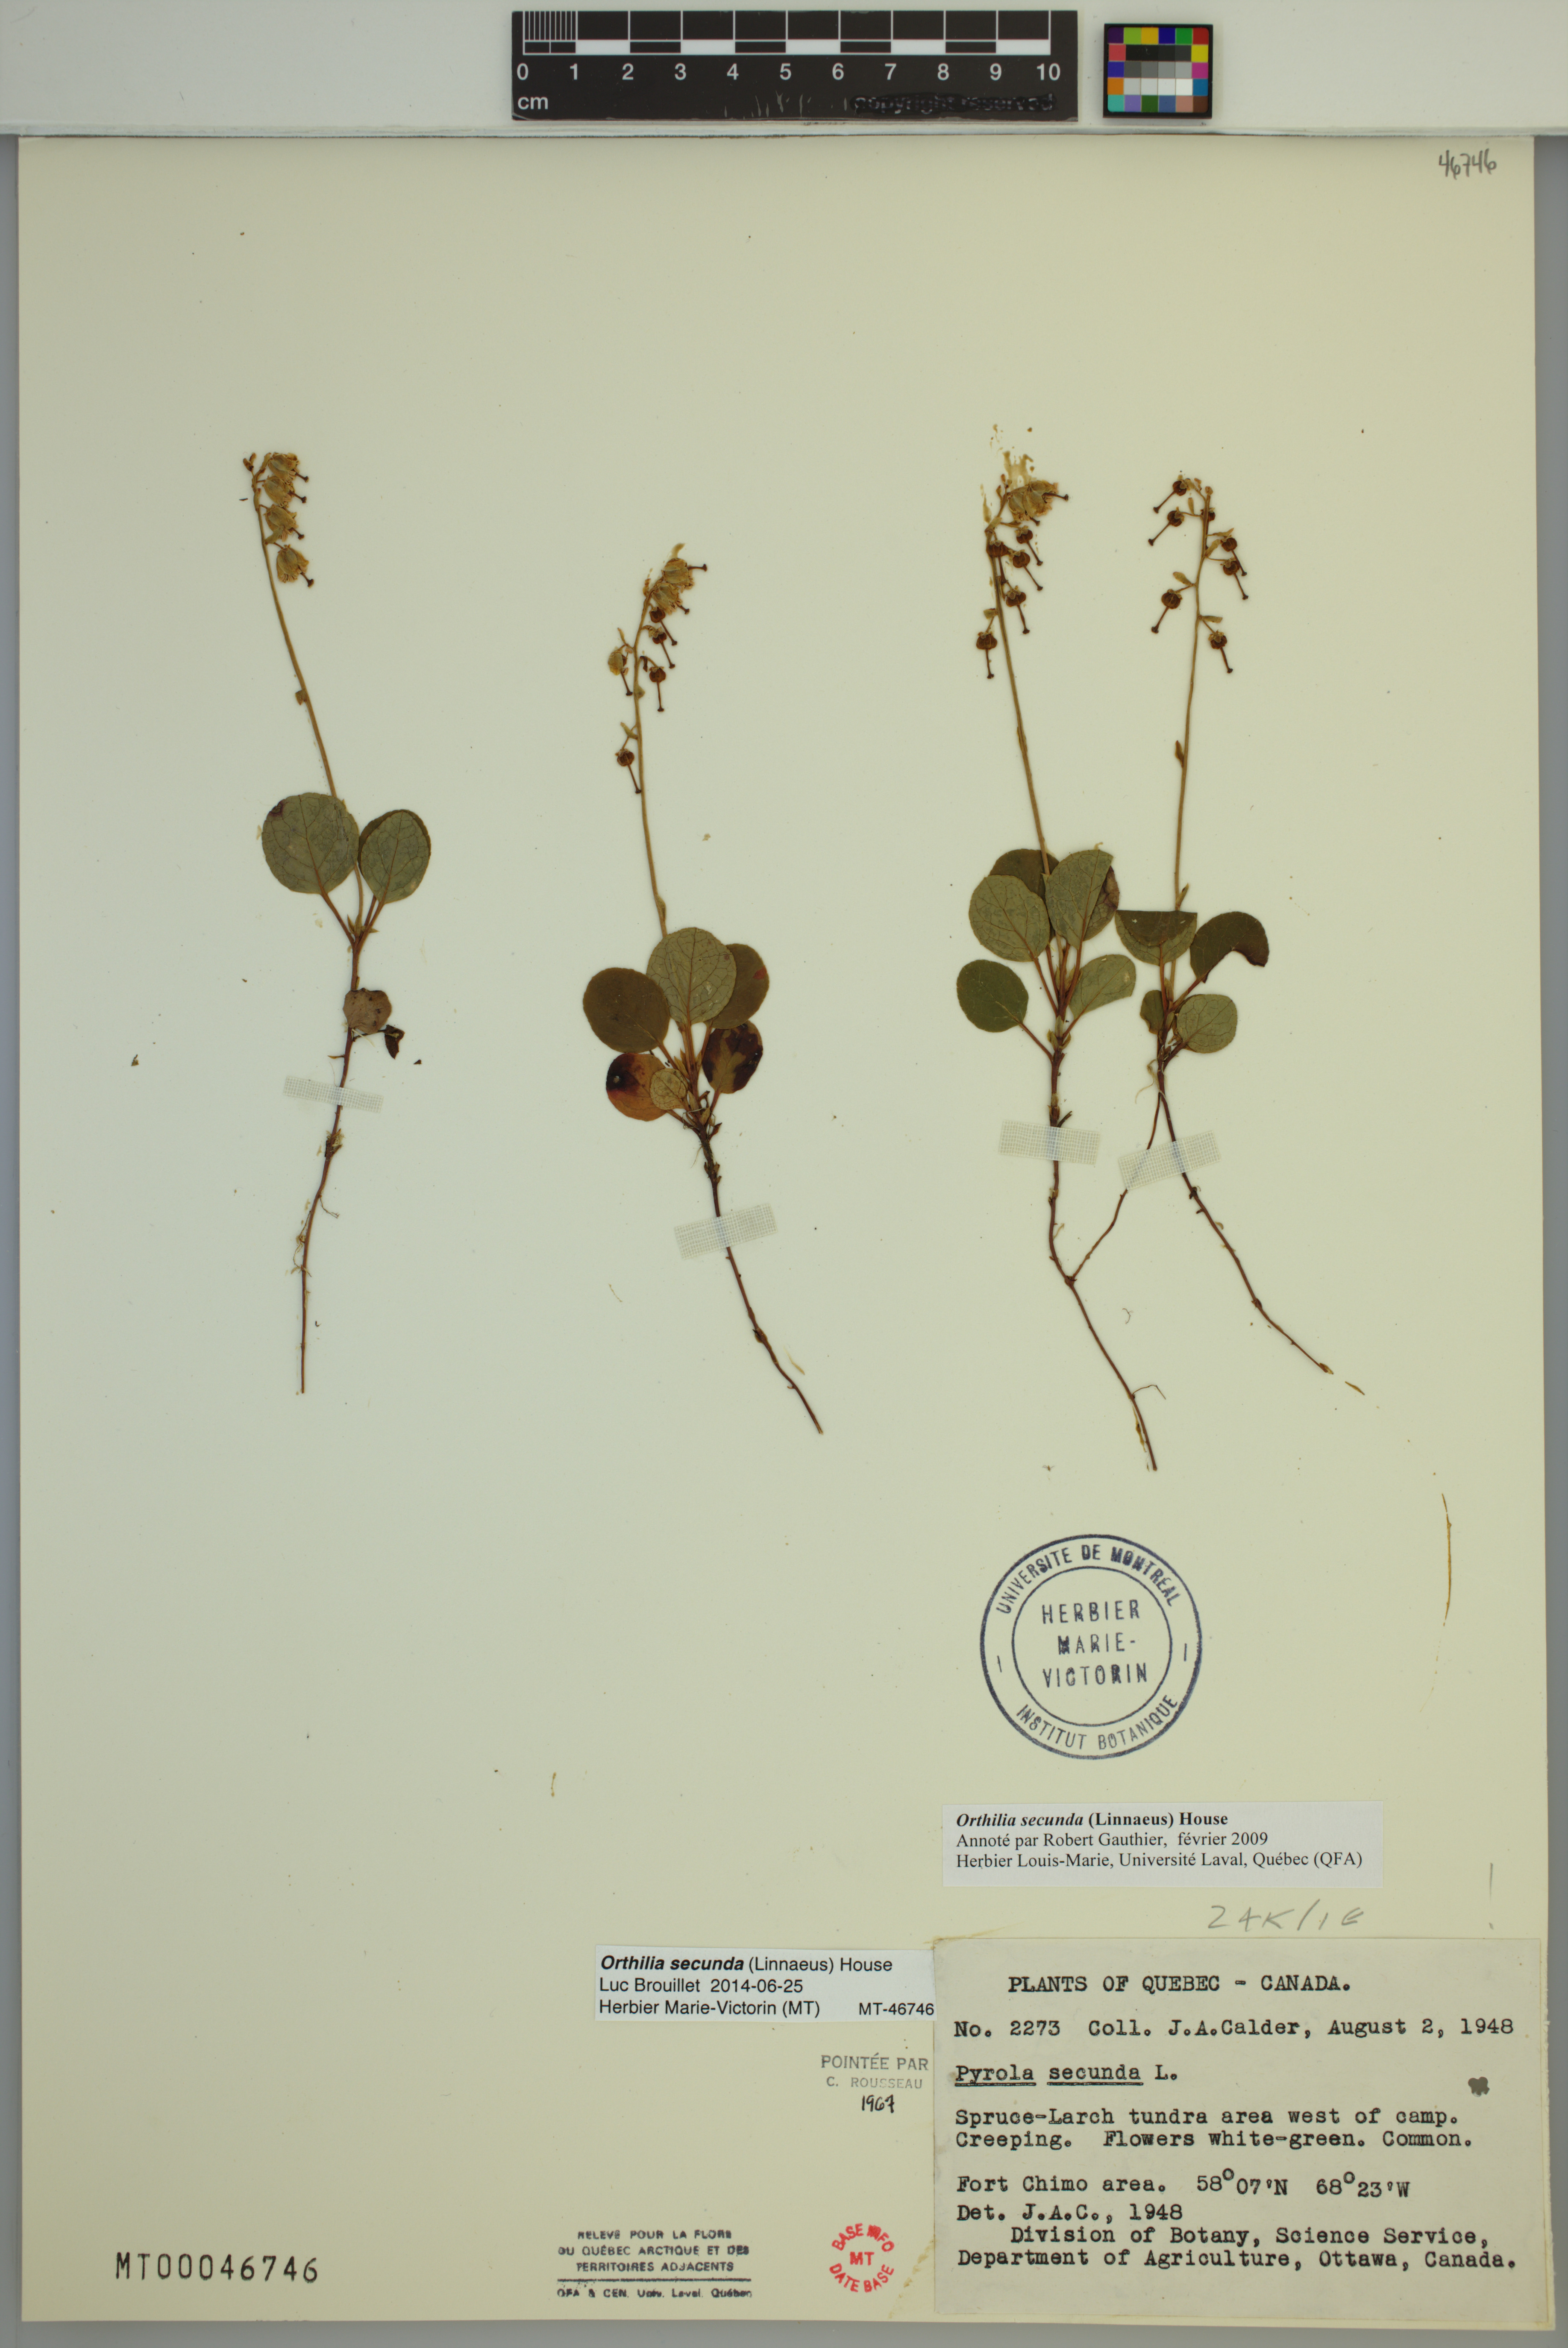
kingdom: Plantae
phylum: Tracheophyta
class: Magnoliopsida
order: Ericales
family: Ericaceae
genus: Orthilia
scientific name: Orthilia secunda
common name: One-sided orthilia
